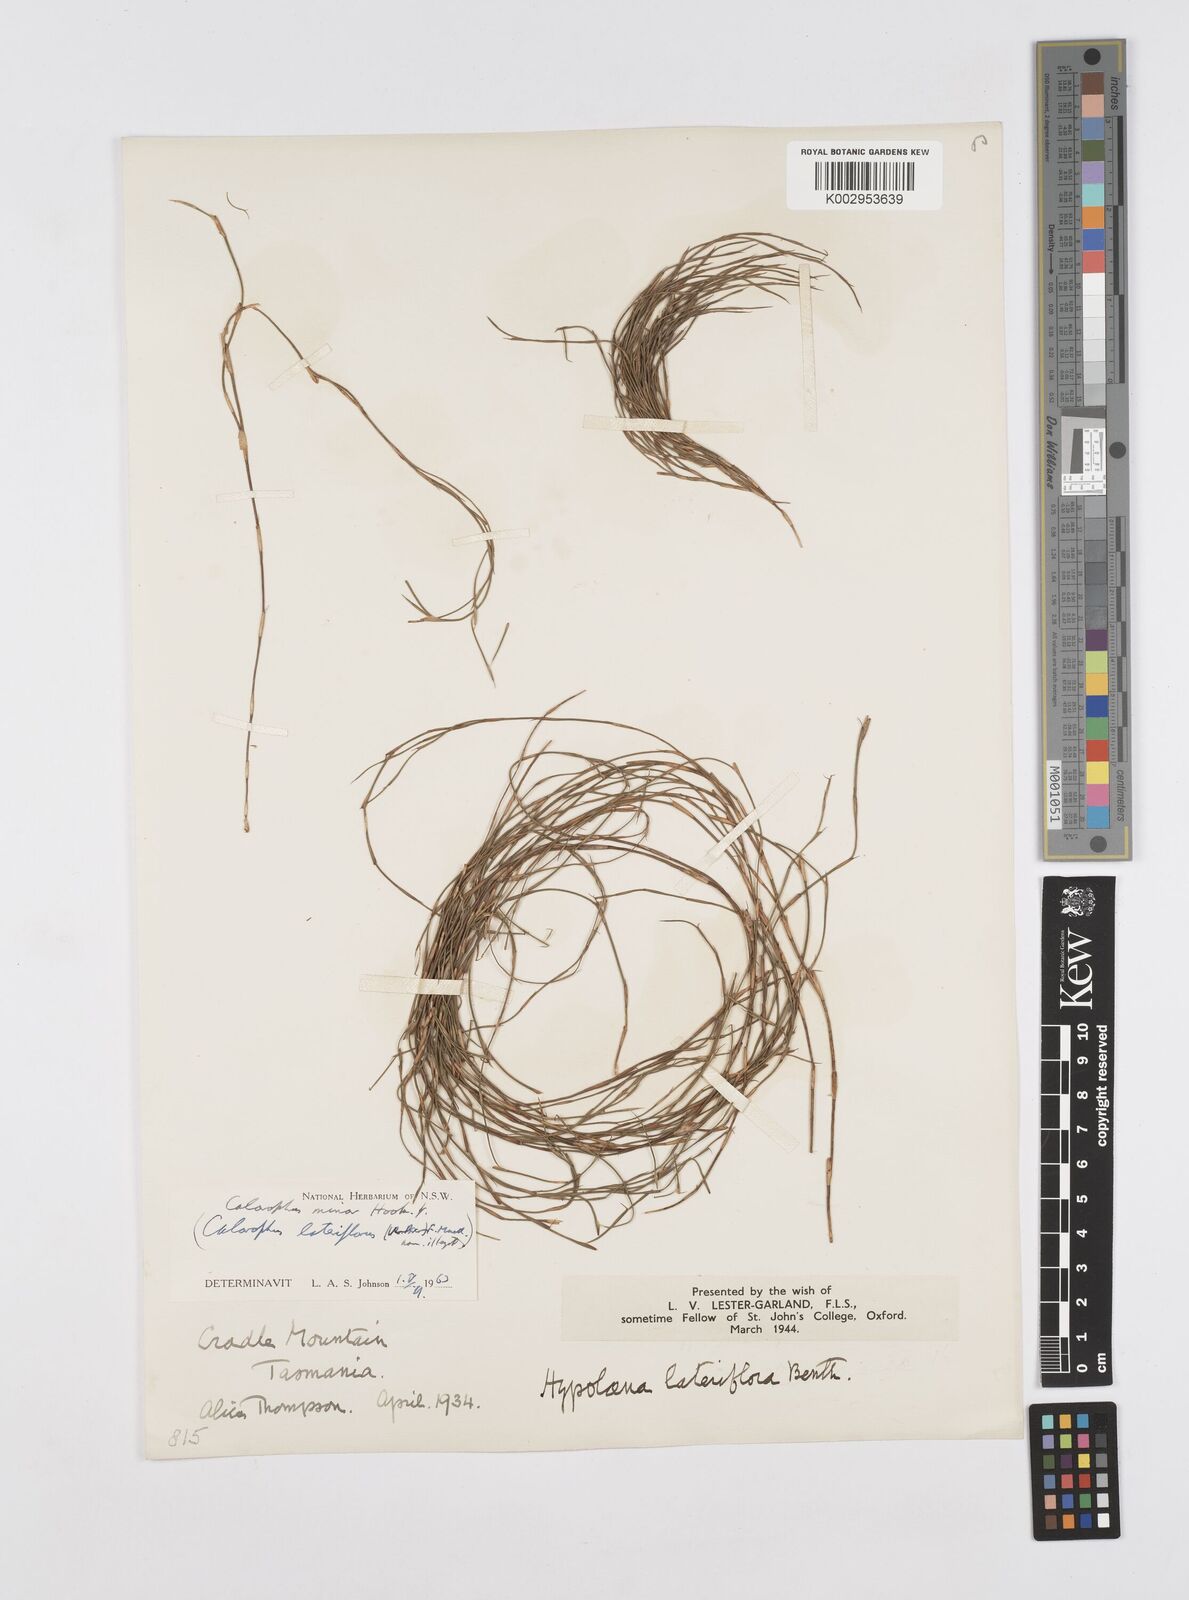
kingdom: Plantae
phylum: Tracheophyta
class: Liliopsida
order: Poales
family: Restionaceae
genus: Empodisma
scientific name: Empodisma minus
